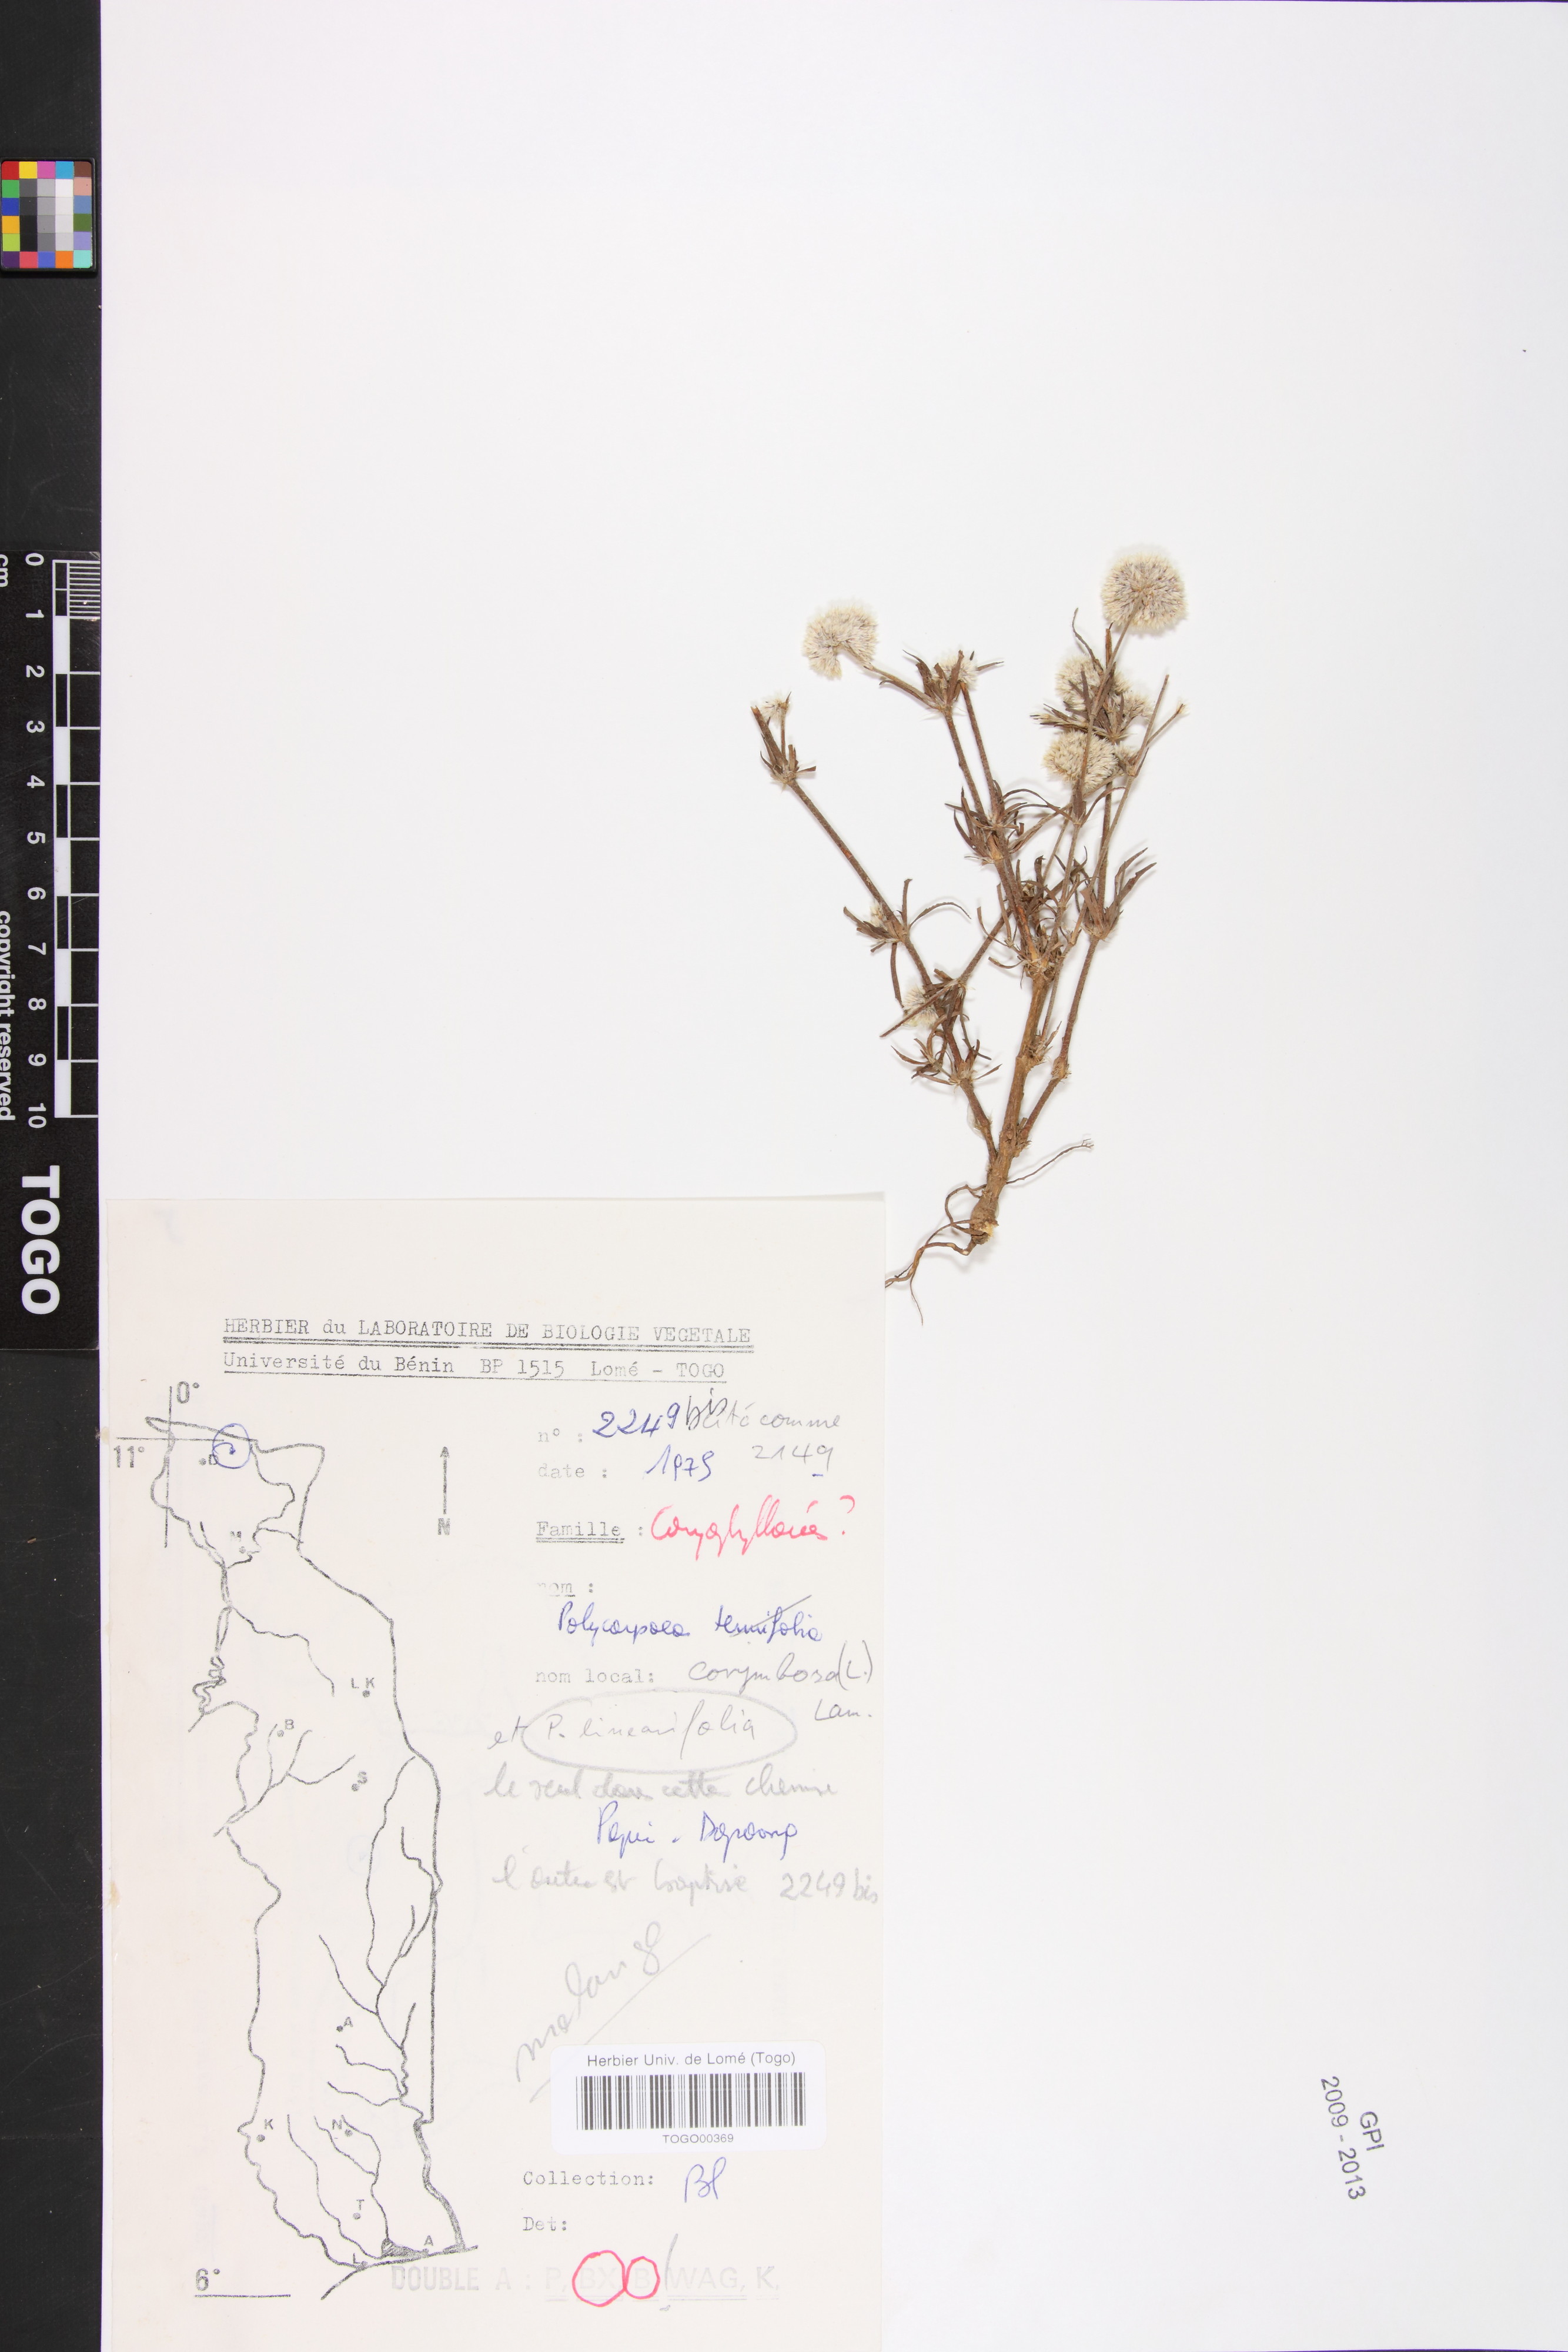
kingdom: Plantae
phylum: Tracheophyta
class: Magnoliopsida
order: Caryophyllales
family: Caryophyllaceae
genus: Polycarpaea
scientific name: Polycarpaea linearifolia
